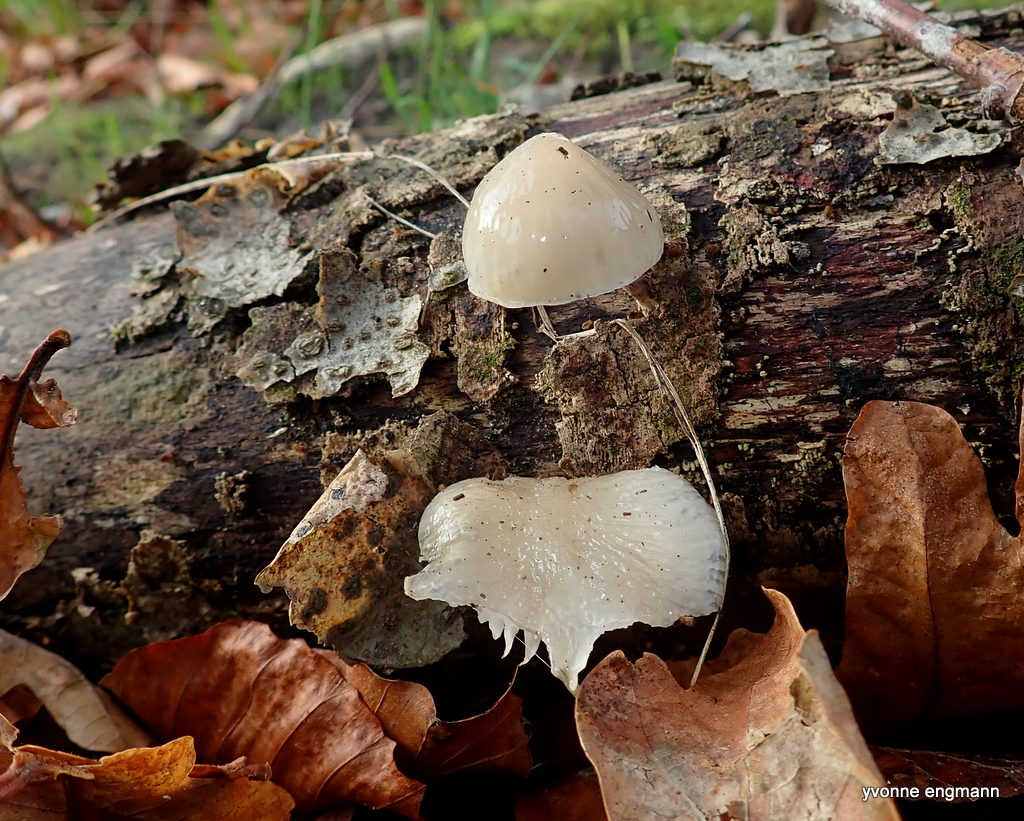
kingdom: Fungi
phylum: Basidiomycota
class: Agaricomycetes
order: Agaricales
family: Physalacriaceae
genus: Mucidula
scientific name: Mucidula mucida
